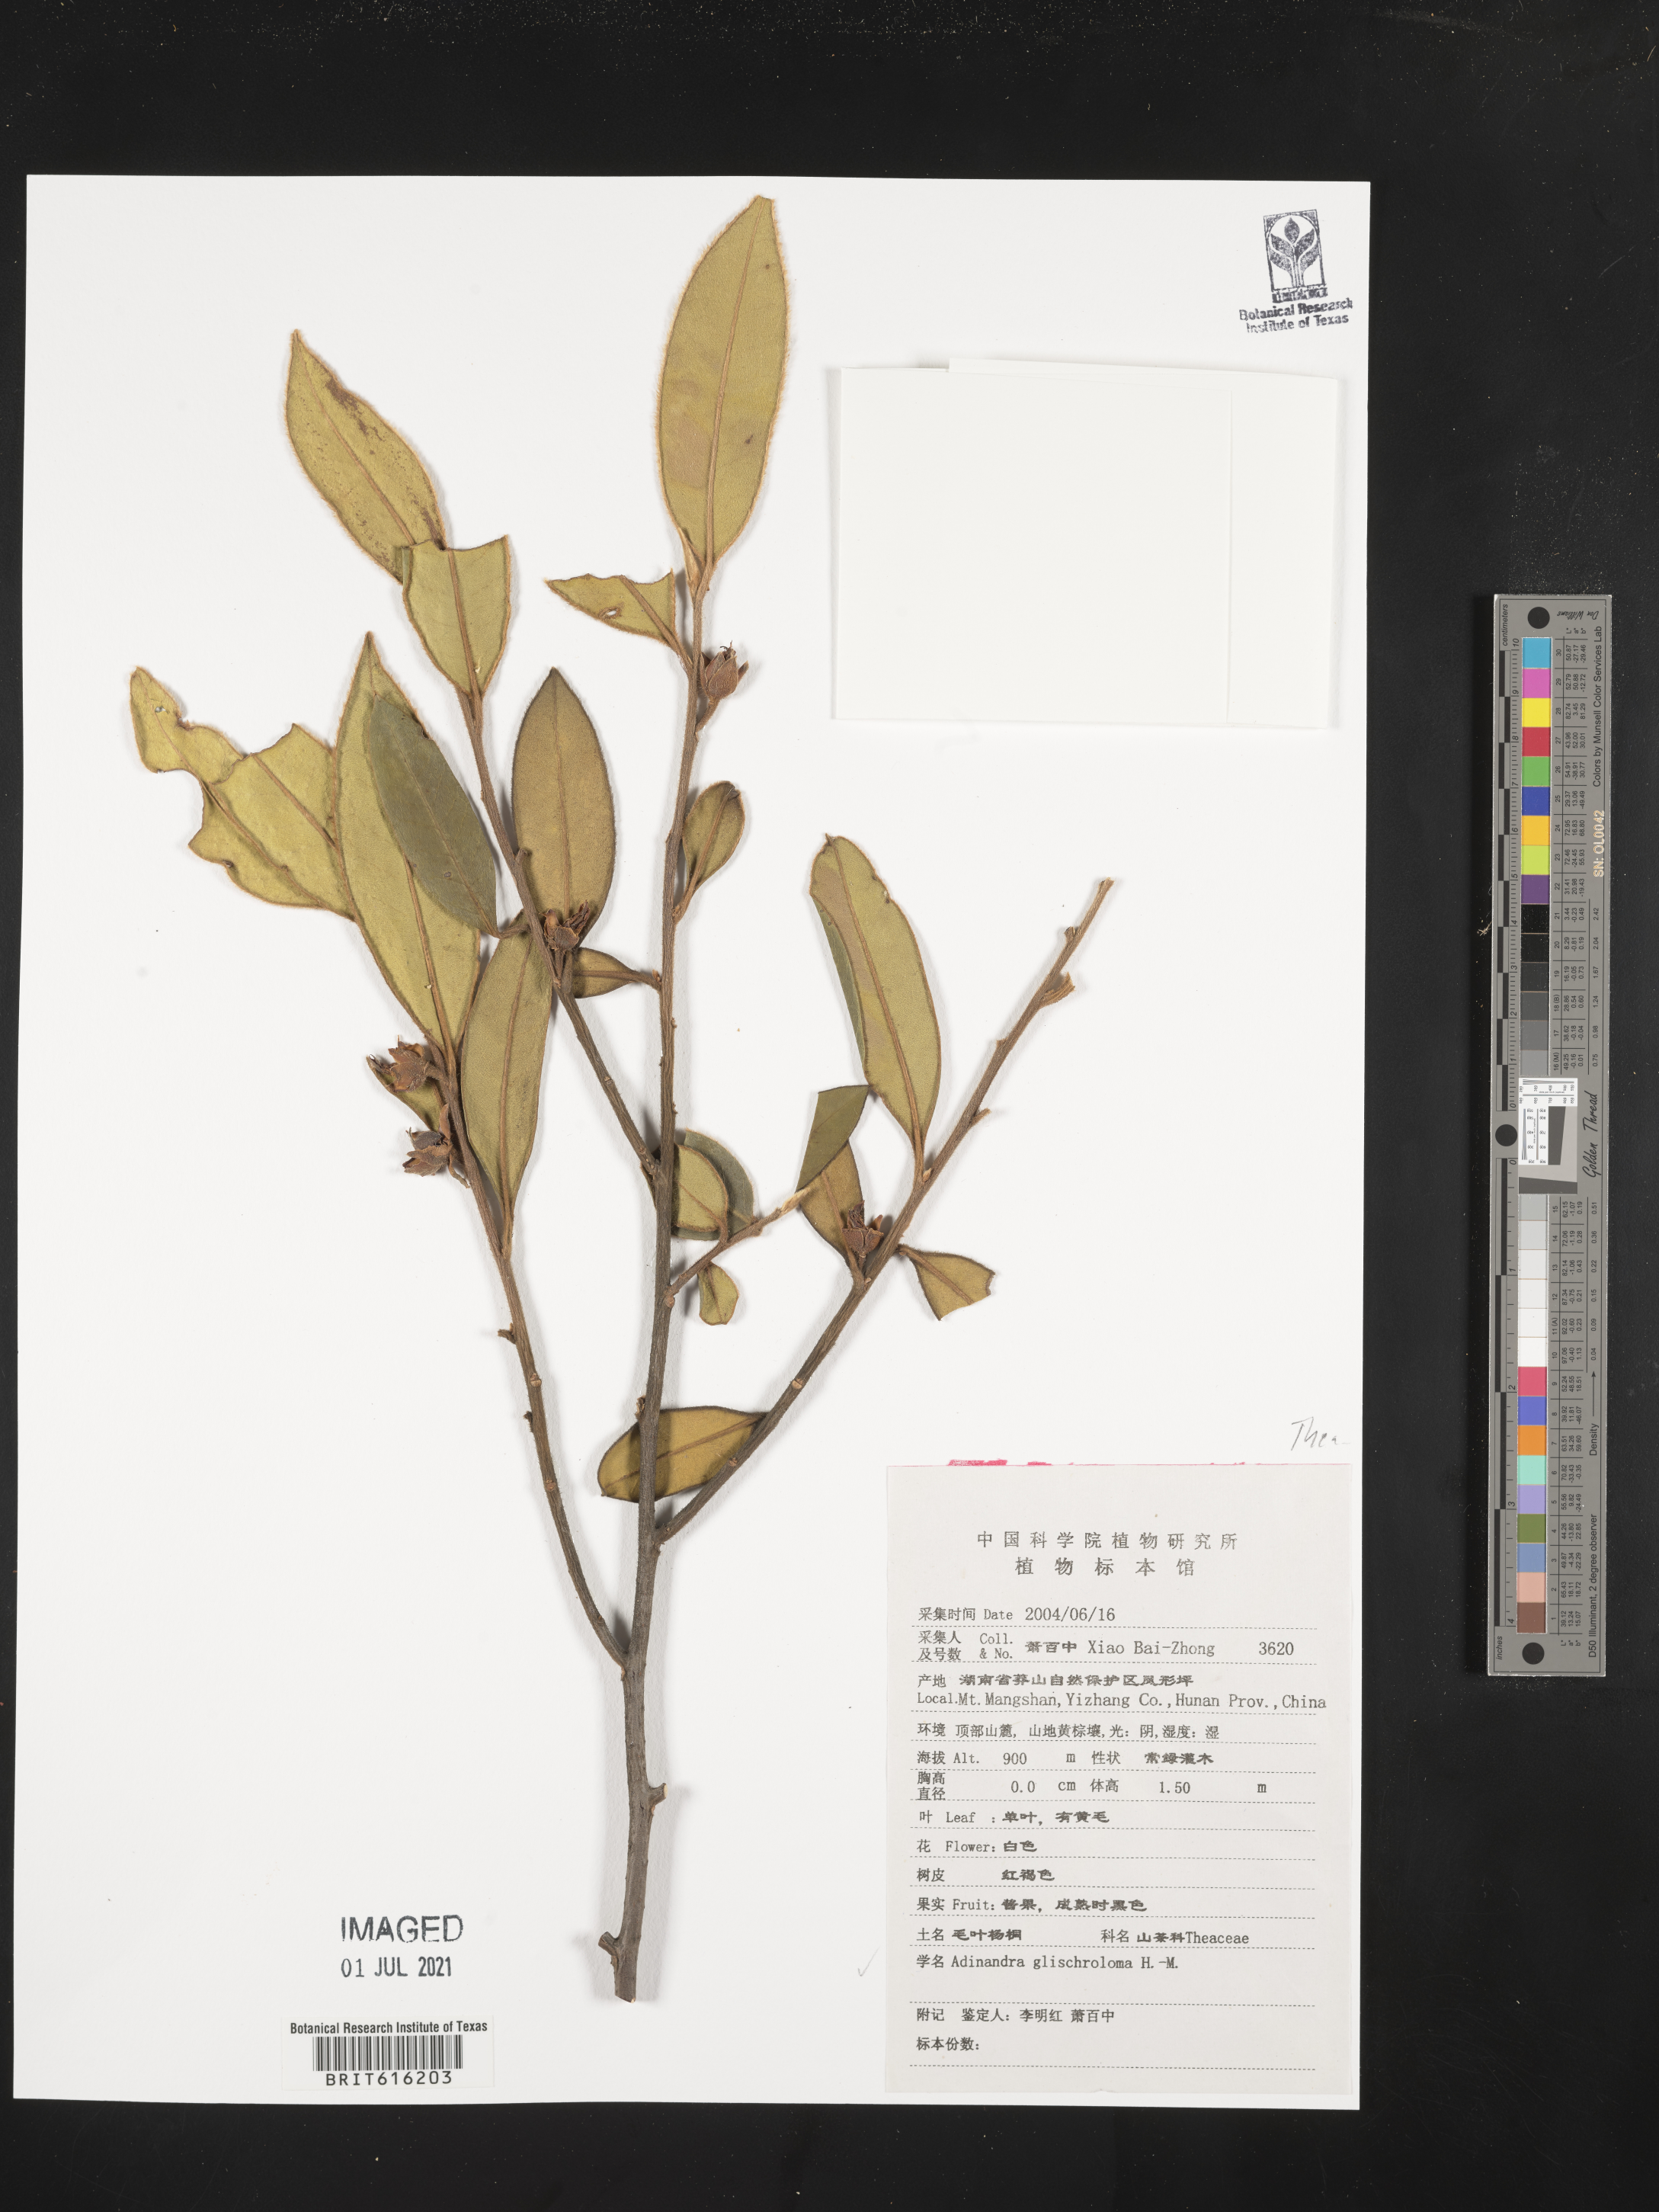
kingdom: Plantae
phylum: Tracheophyta
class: Magnoliopsida
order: Ericales
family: Pentaphylacaceae
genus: Adinandra
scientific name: Adinandra glischroloma
